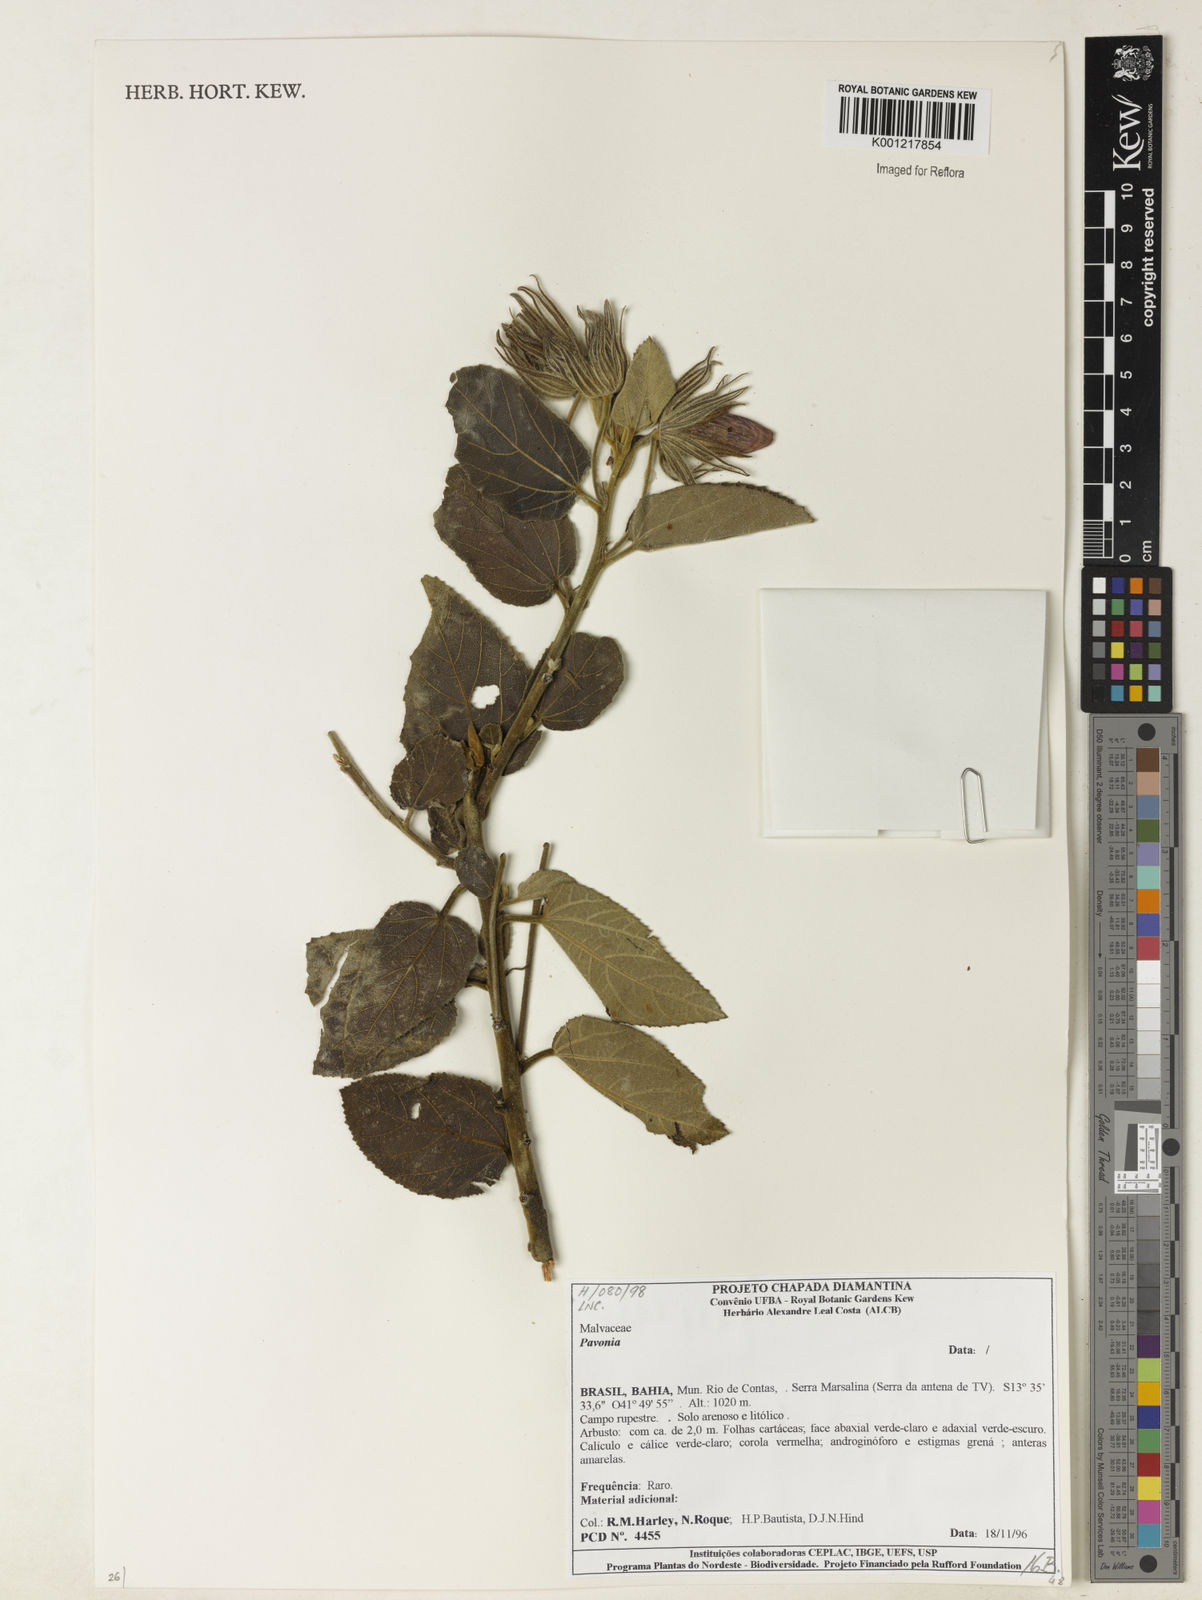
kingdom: Plantae
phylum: Tracheophyta
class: Magnoliopsida
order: Malvales
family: Malvaceae
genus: Pavonia
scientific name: Pavonia
